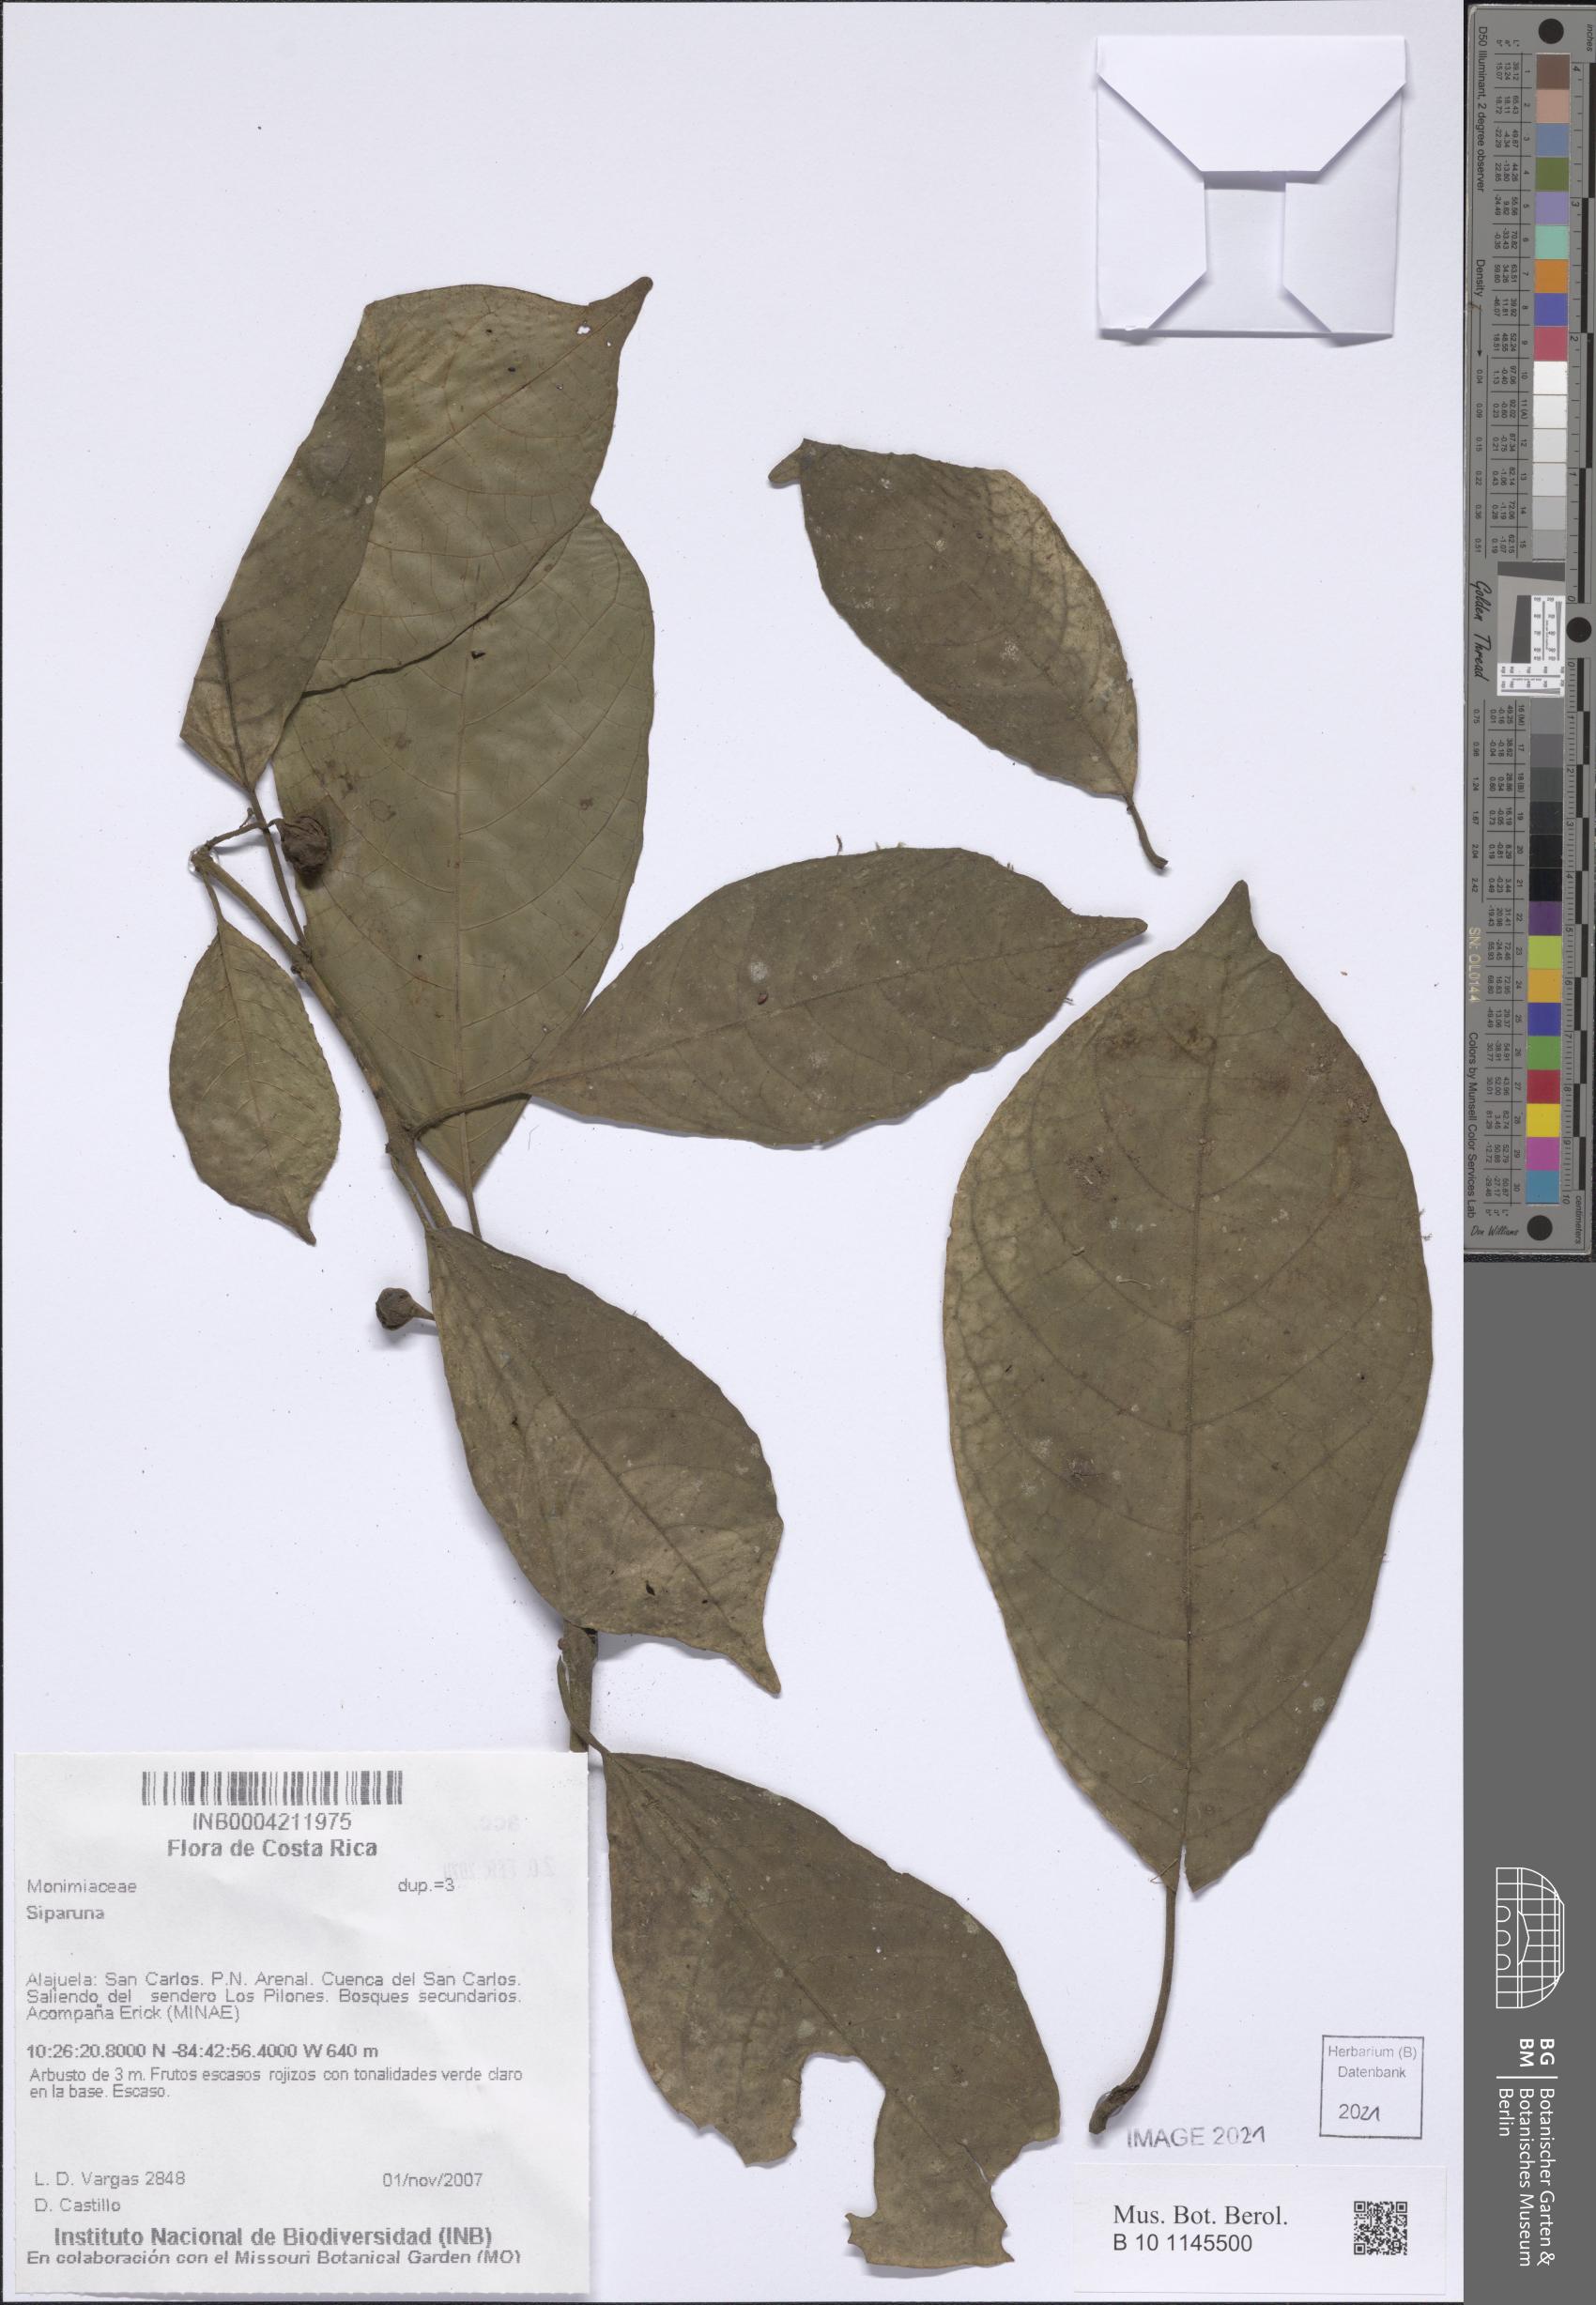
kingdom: Plantae
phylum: Tracheophyta
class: Magnoliopsida
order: Laurales
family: Siparunaceae
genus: Siparuna
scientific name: Siparuna
